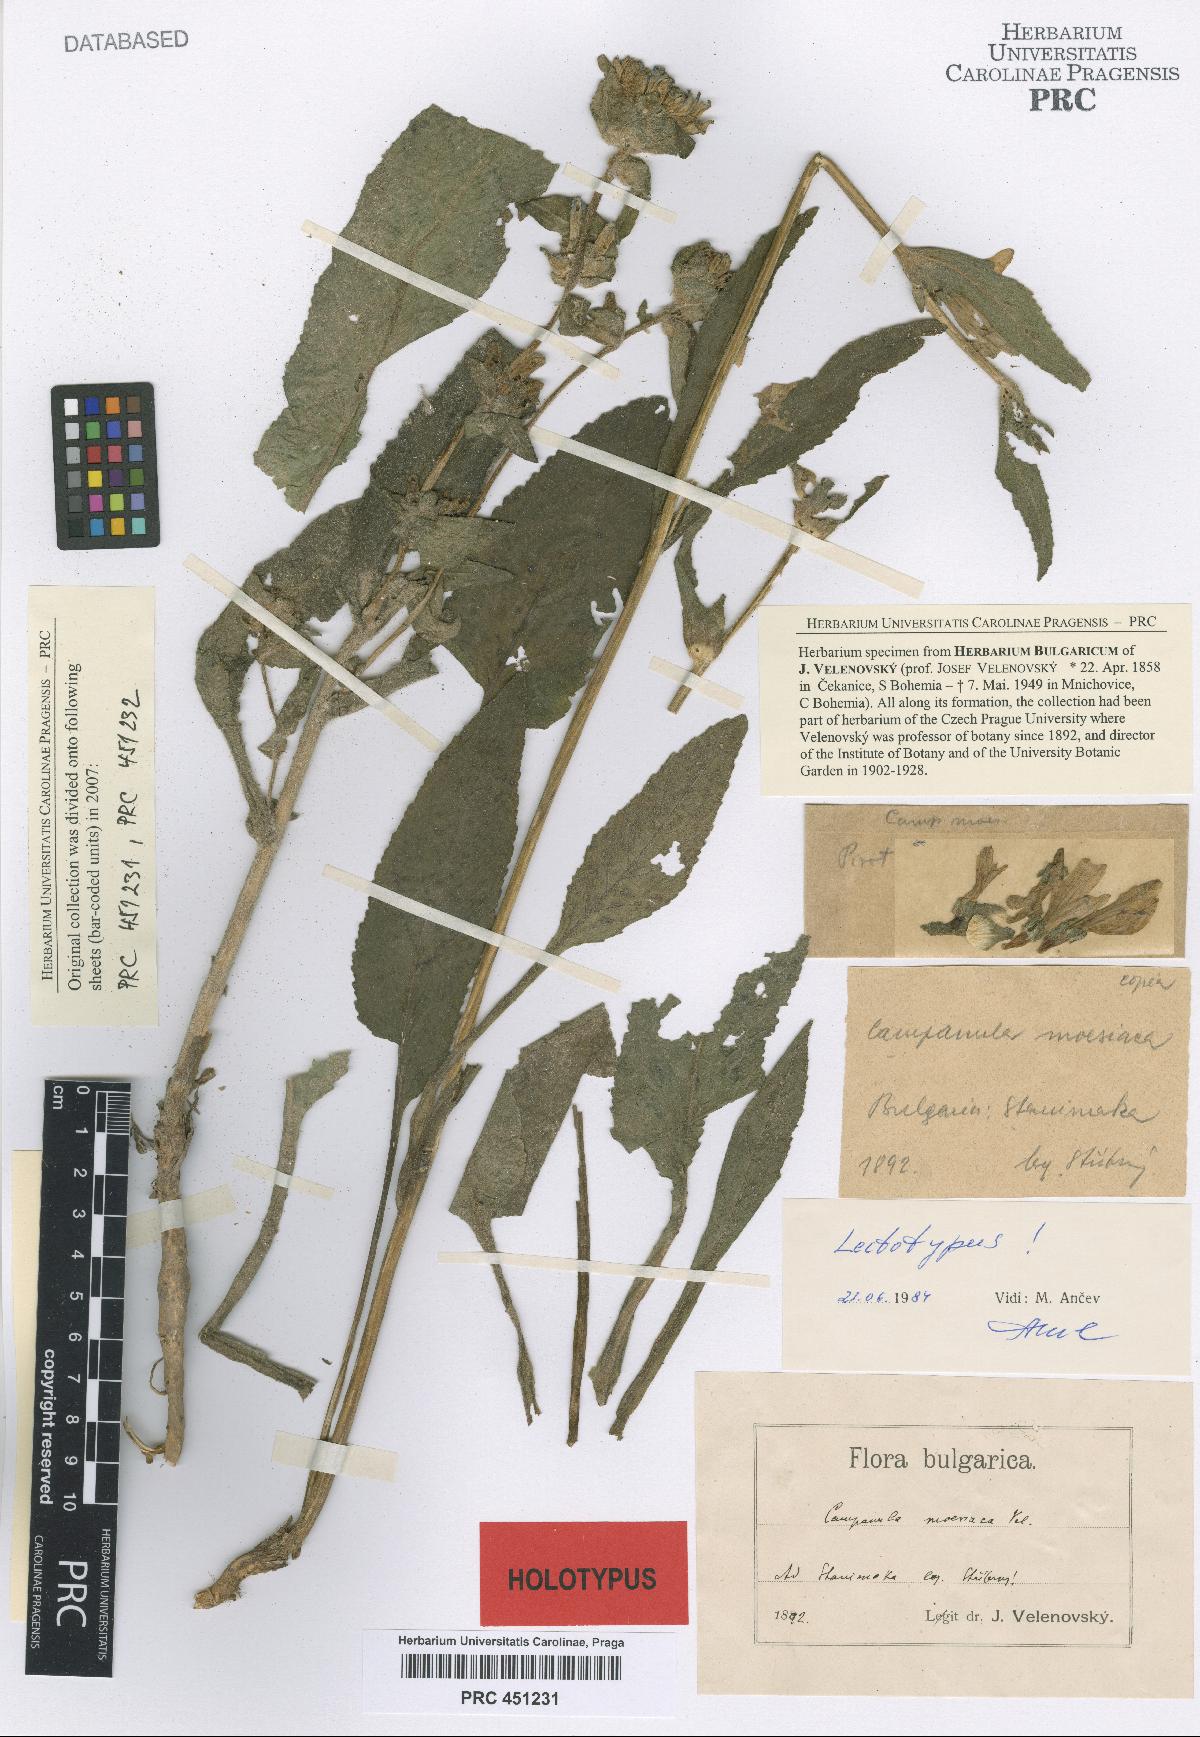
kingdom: Plantae
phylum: Tracheophyta
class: Magnoliopsida
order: Asterales
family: Campanulaceae
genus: Campanula
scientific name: Campanula moesiaca
